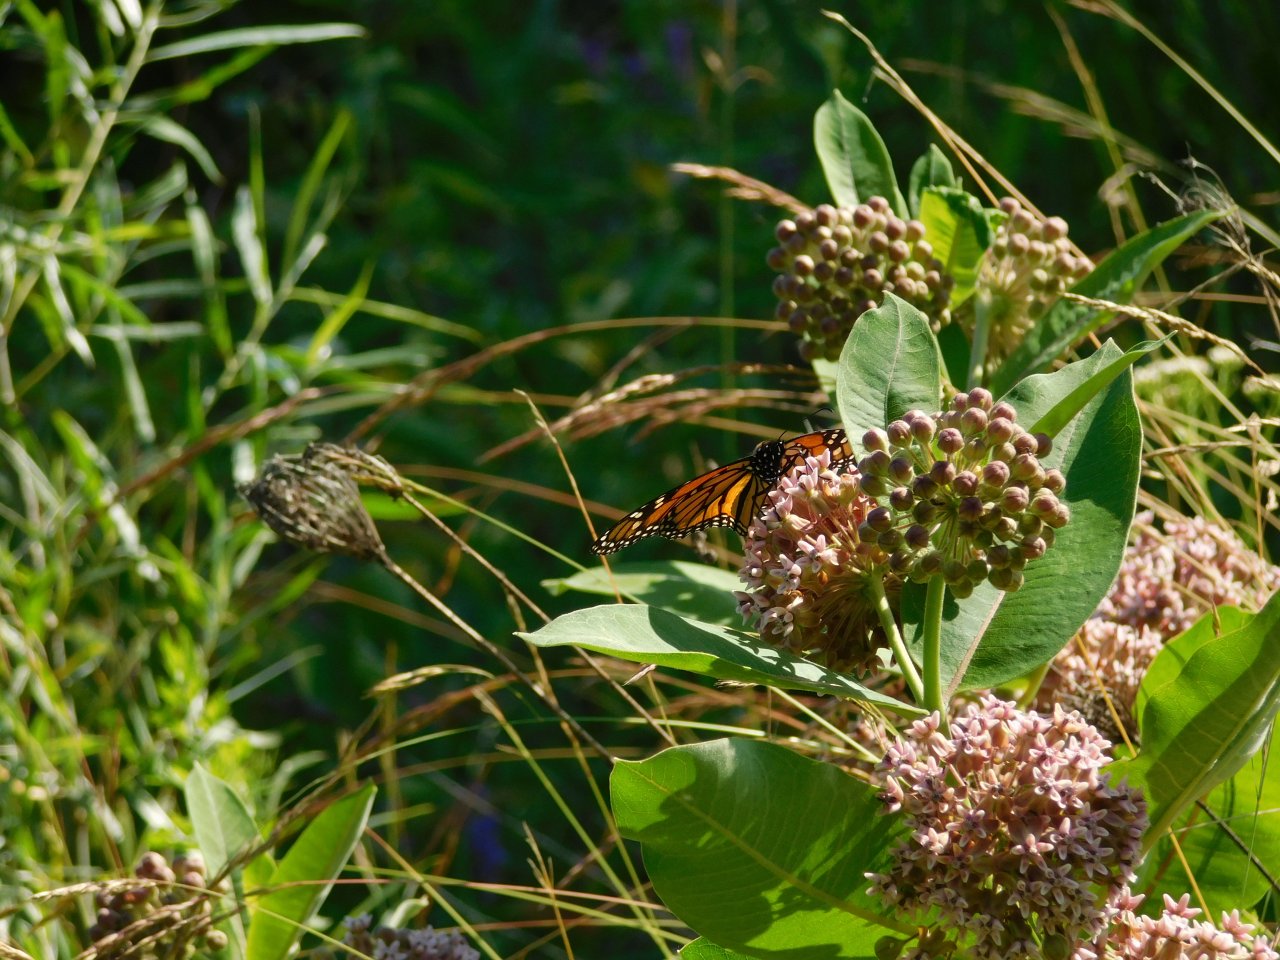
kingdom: Animalia
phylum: Arthropoda
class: Insecta
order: Lepidoptera
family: Nymphalidae
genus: Danaus
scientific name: Danaus plexippus
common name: Monarch
